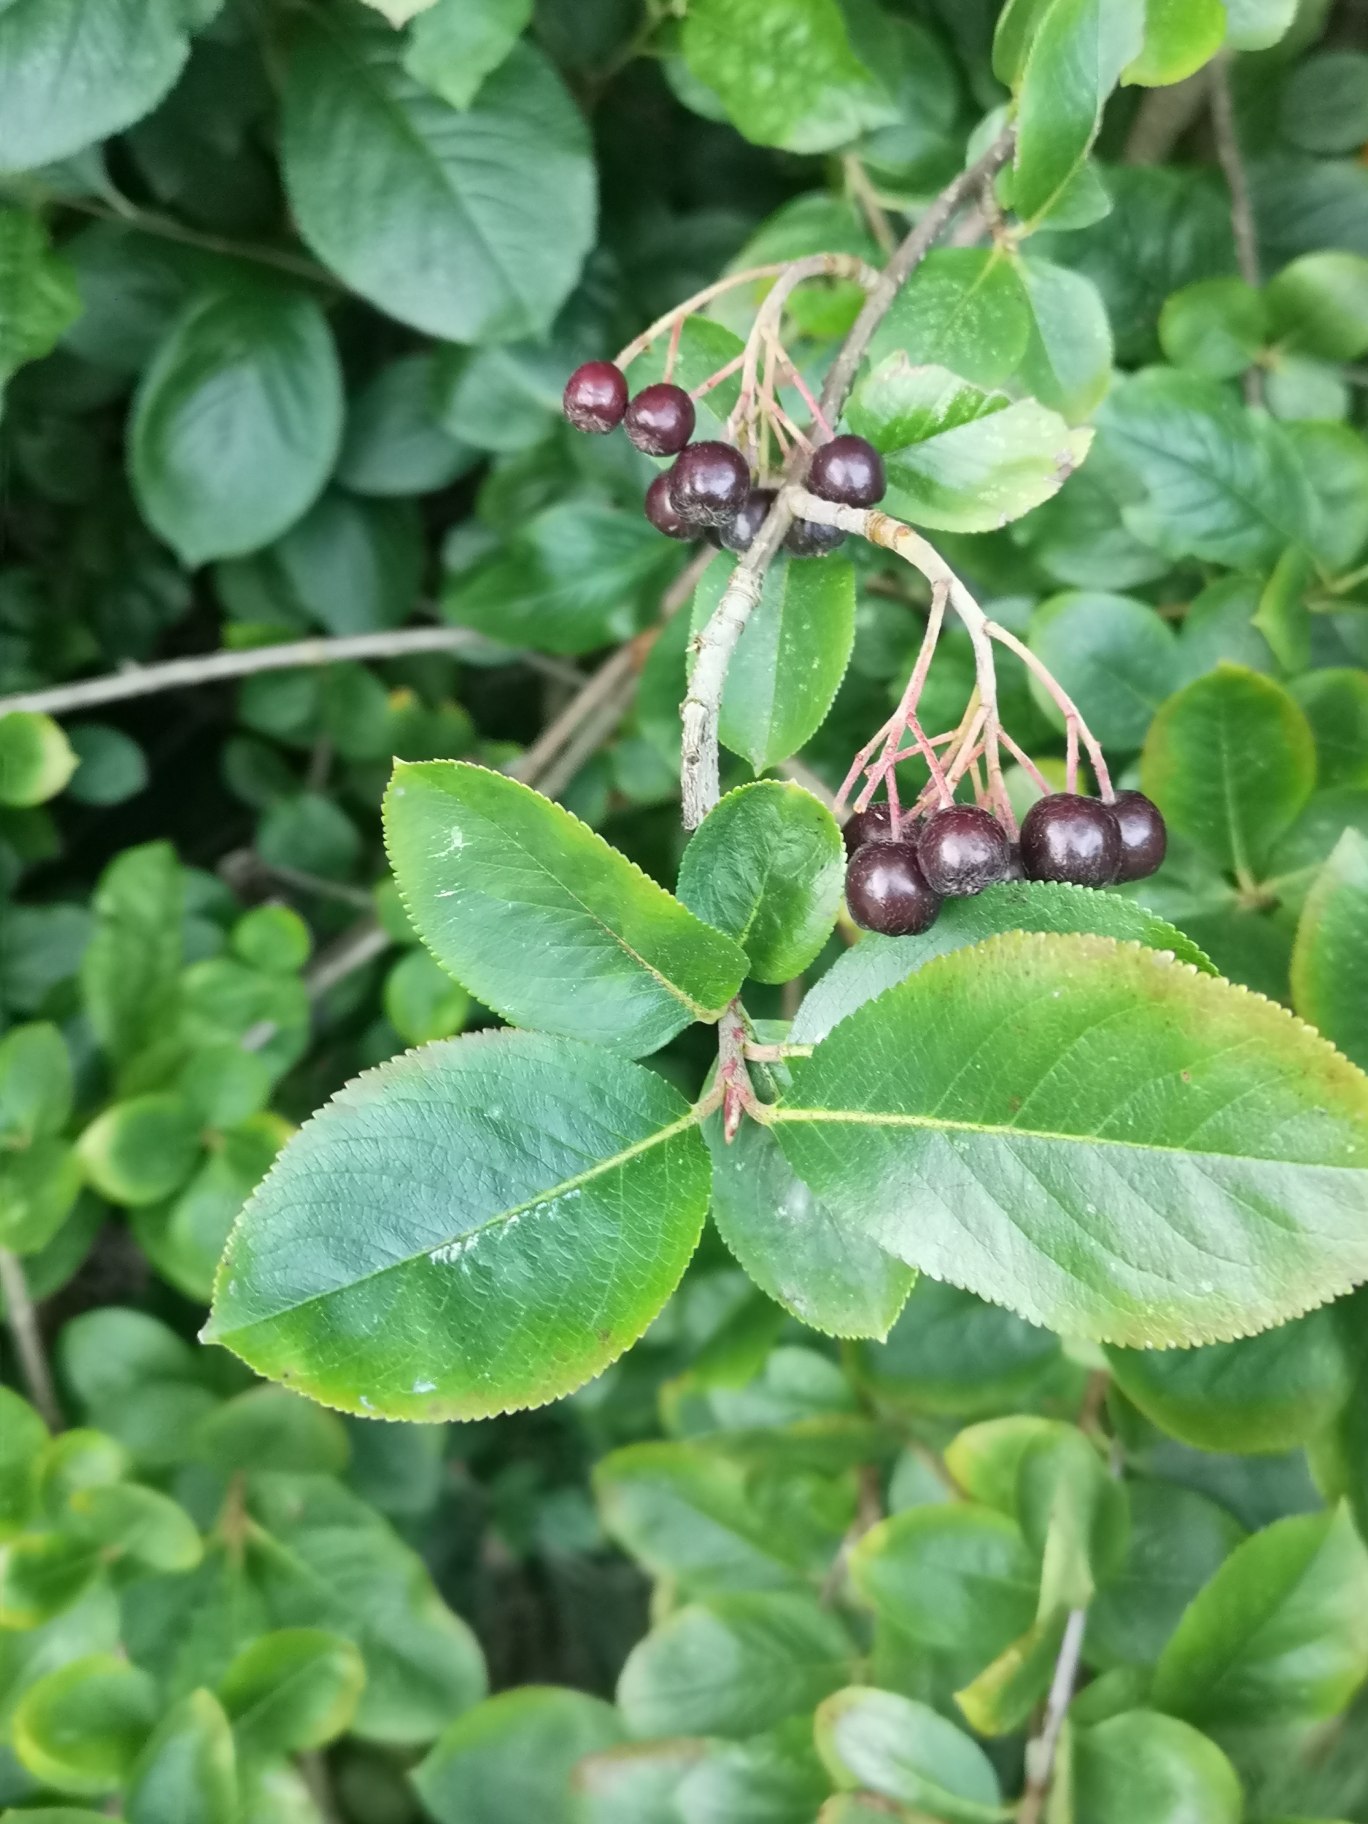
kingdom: Plantae
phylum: Tracheophyta
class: Magnoliopsida
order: Rosales
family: Rosaceae
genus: Aronia
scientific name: Aronia melanocarpa
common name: Sortfrugtet surbær
